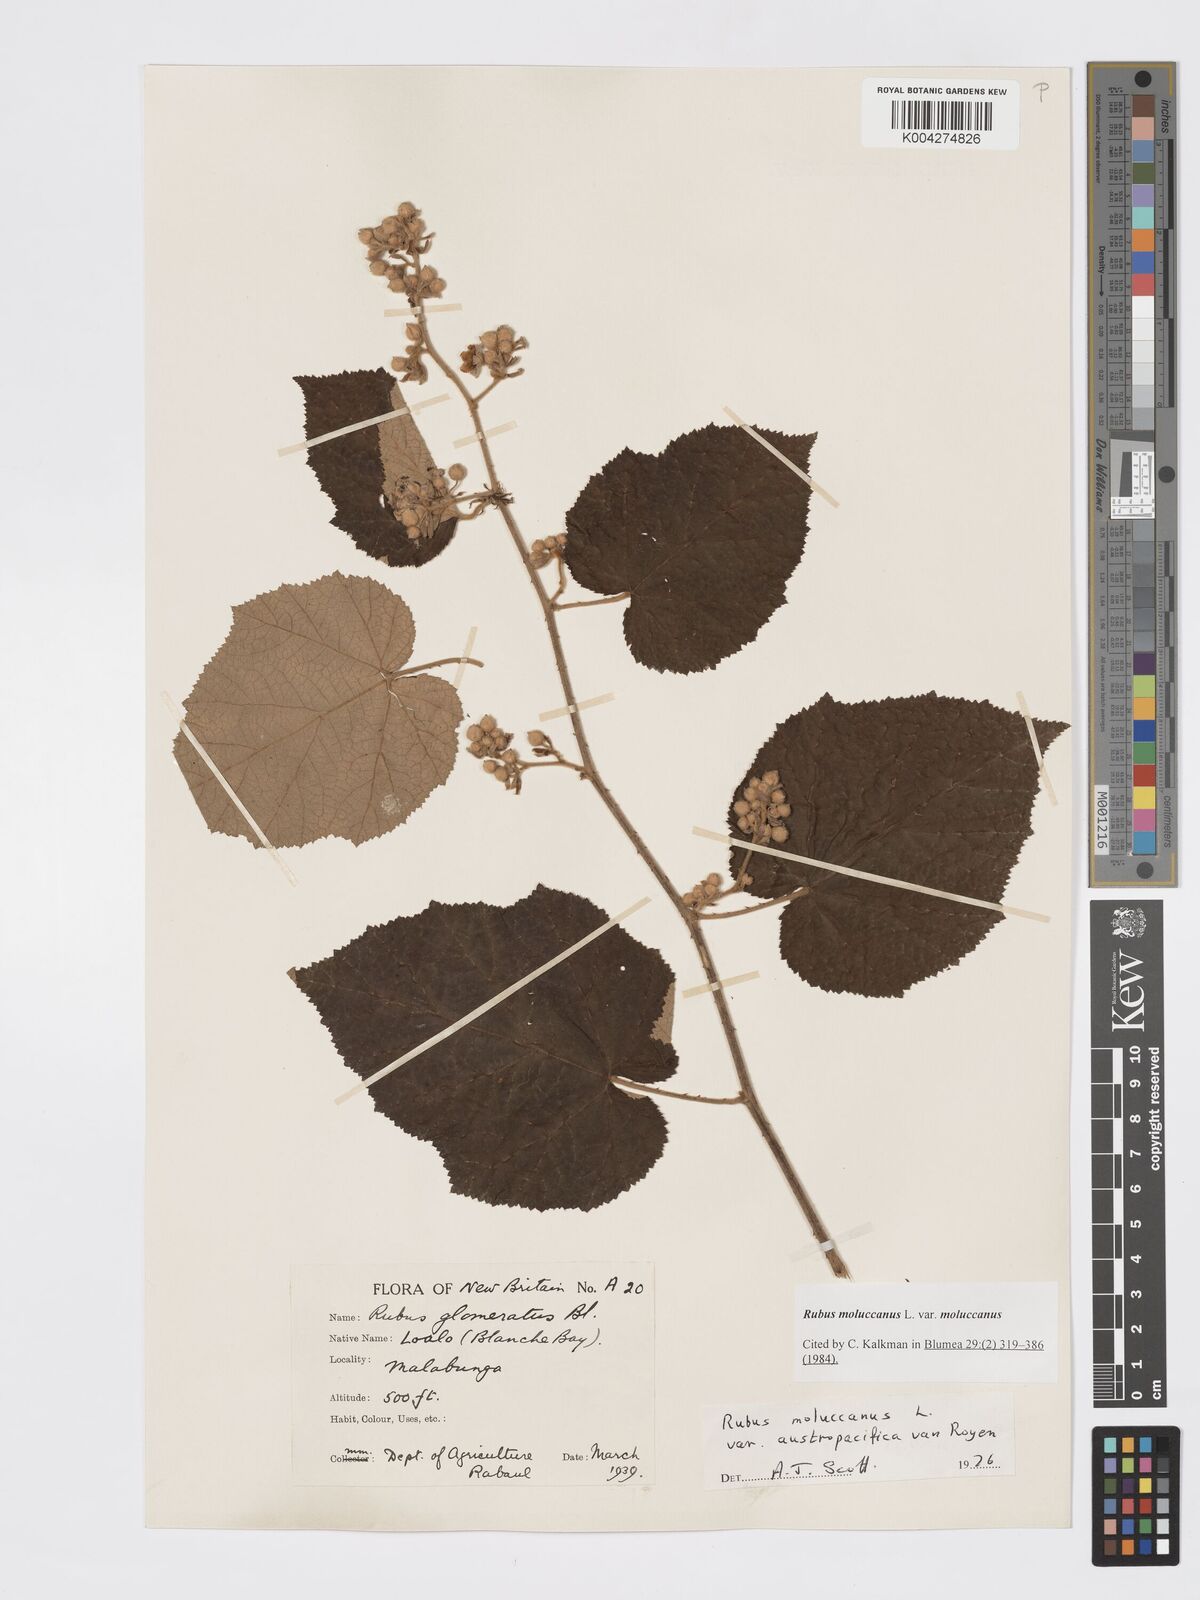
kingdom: Plantae
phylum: Tracheophyta
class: Magnoliopsida
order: Rosales
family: Rosaceae
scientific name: Rosaceae
